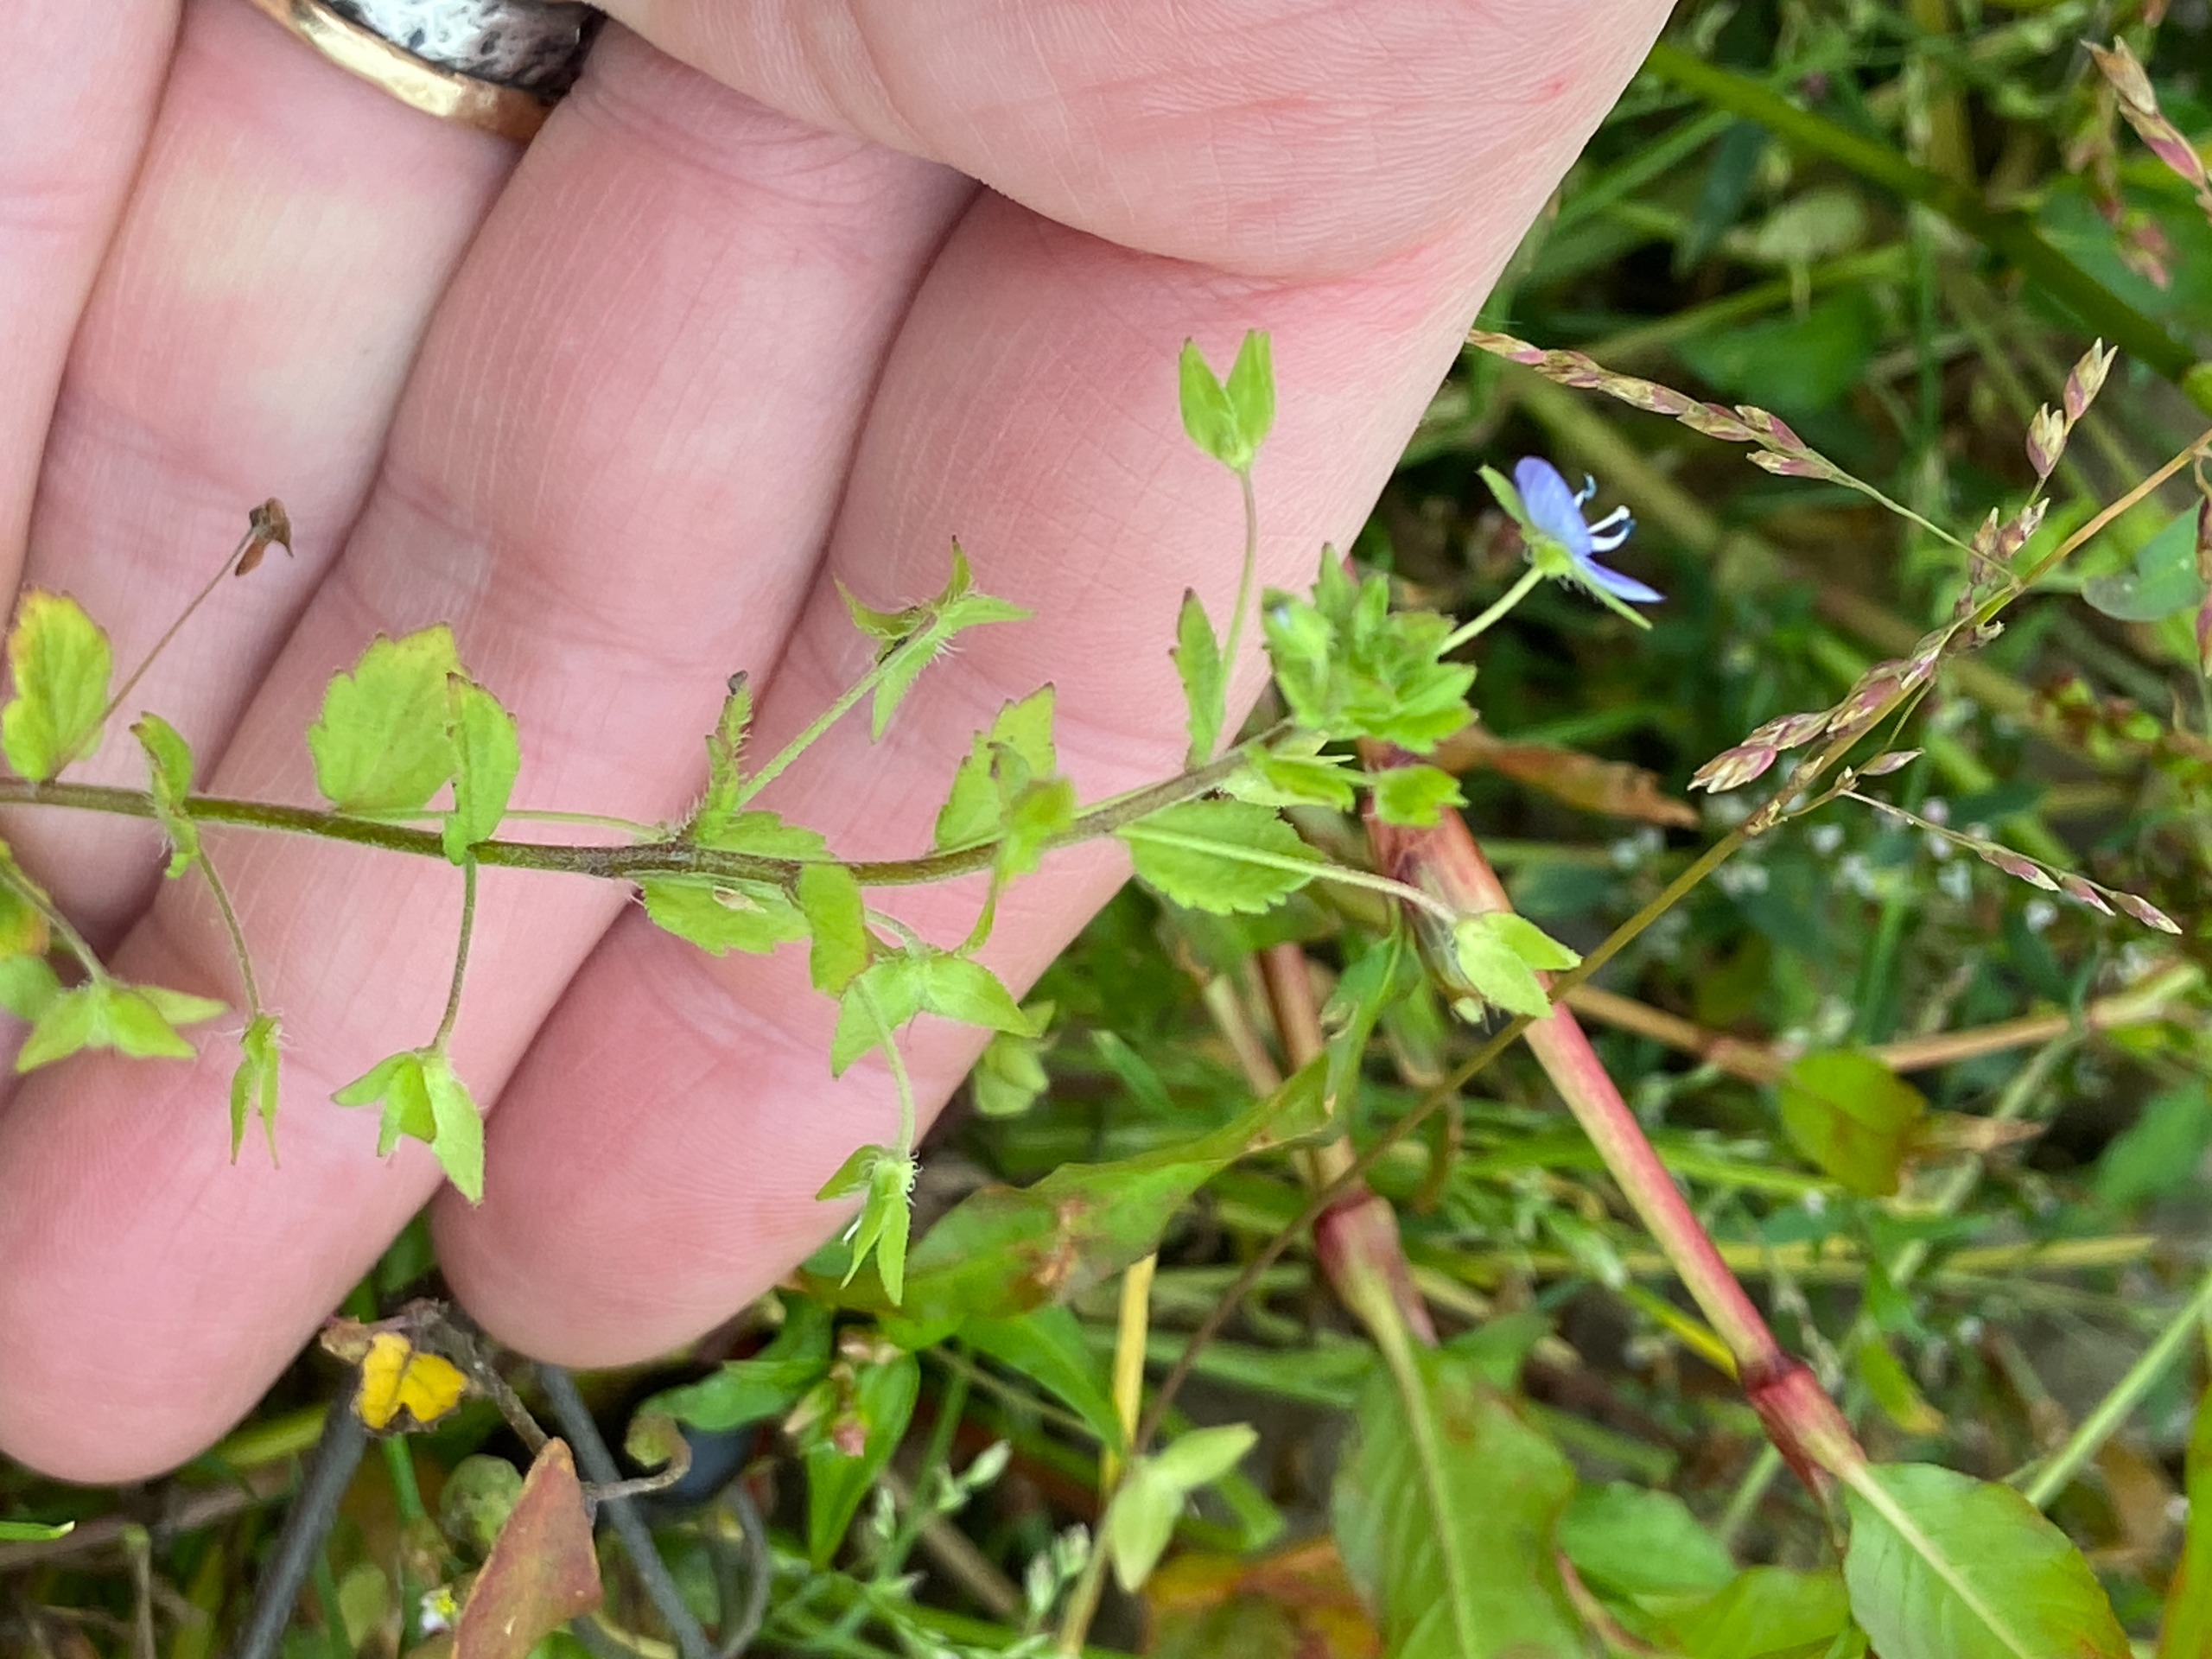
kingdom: Plantae
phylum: Tracheophyta
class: Magnoliopsida
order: Lamiales
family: Plantaginaceae
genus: Veronica
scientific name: Veronica persica
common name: Storkronet ærenpris
